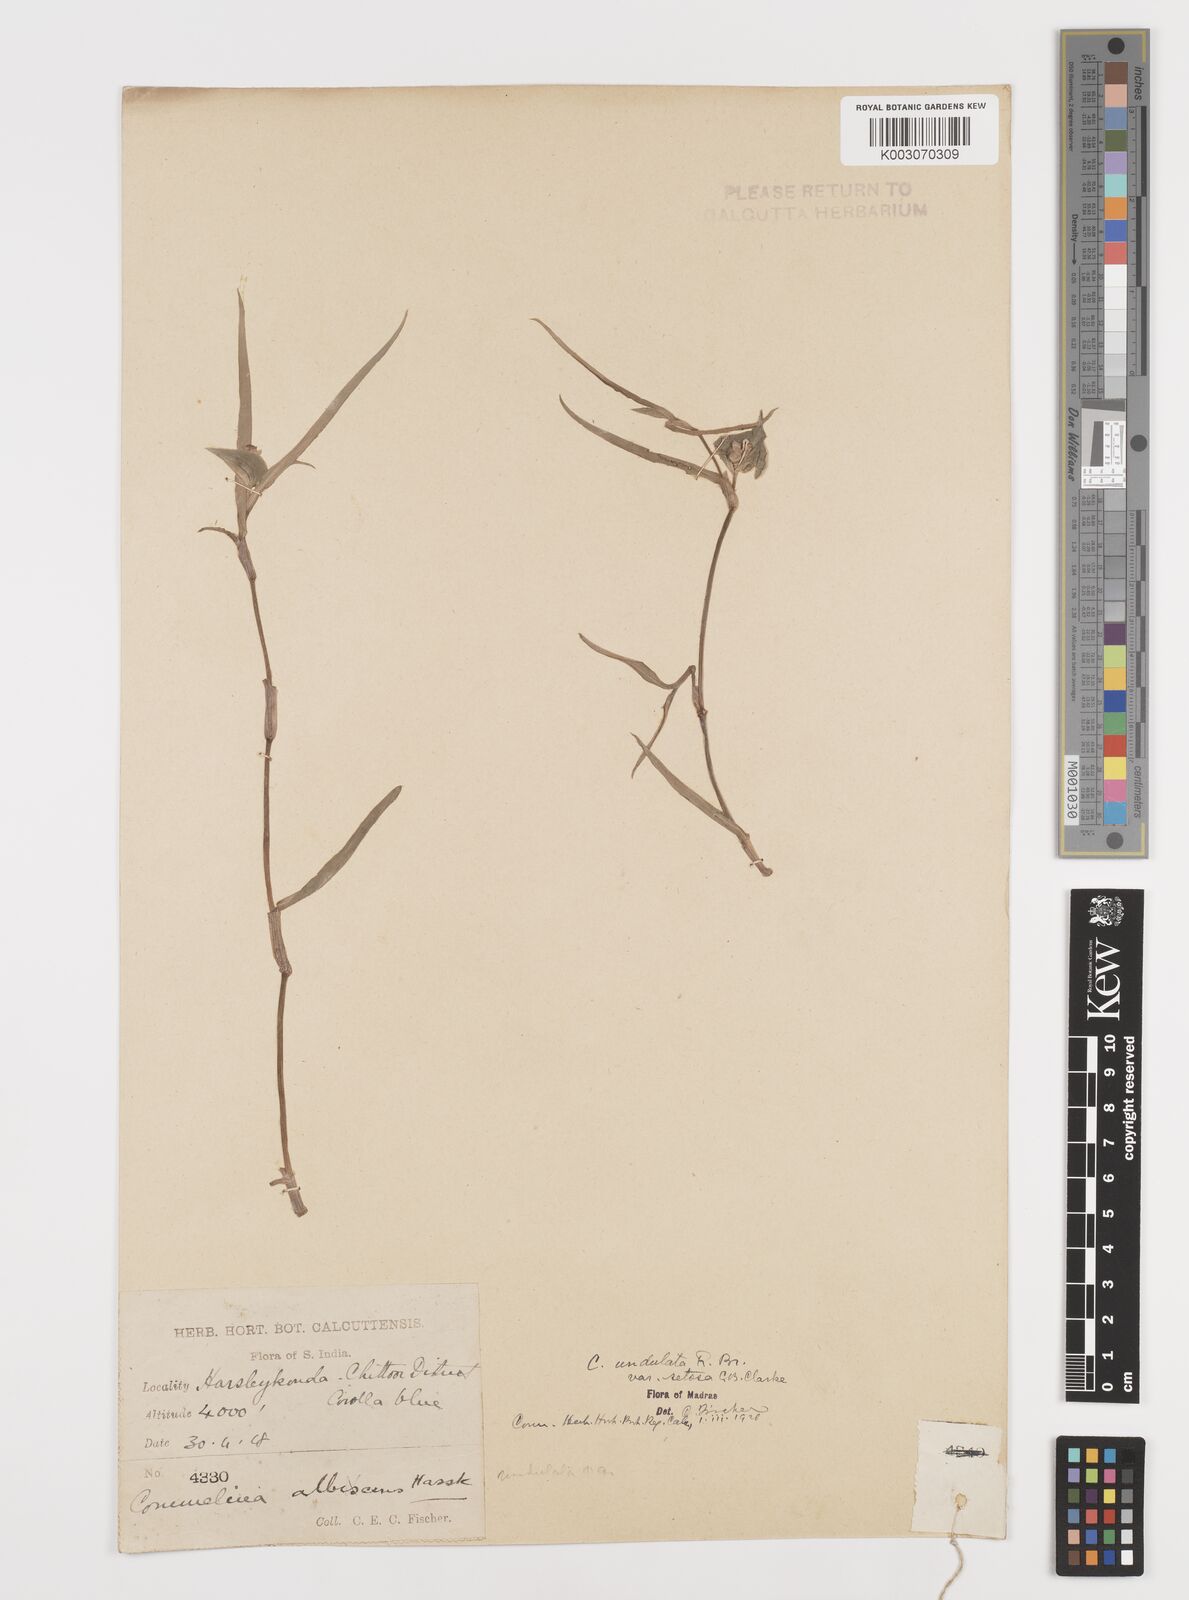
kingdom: Plantae
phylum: Tracheophyta
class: Liliopsida
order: Commelinales
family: Commelinaceae
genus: Commelina
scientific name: Commelina chamissonis
